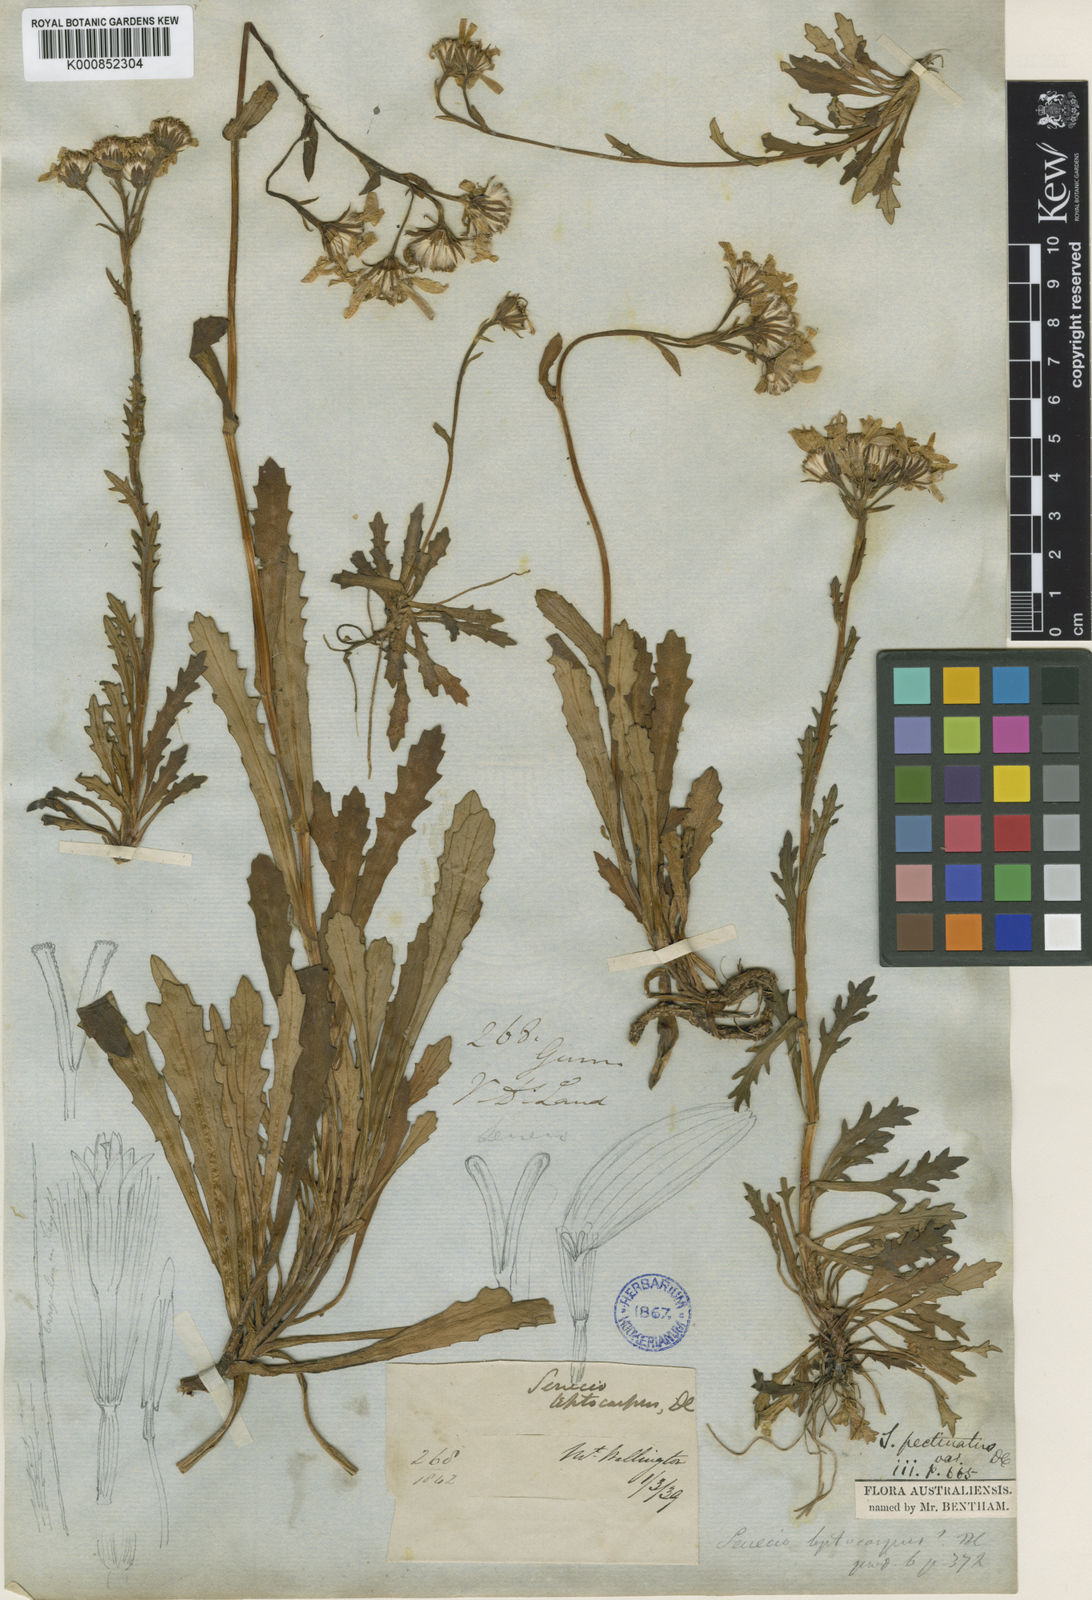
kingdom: Plantae
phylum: Tracheophyta
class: Magnoliopsida
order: Asterales
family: Asteraceae
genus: Scapisenecio
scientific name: Scapisenecio leptocarpus
